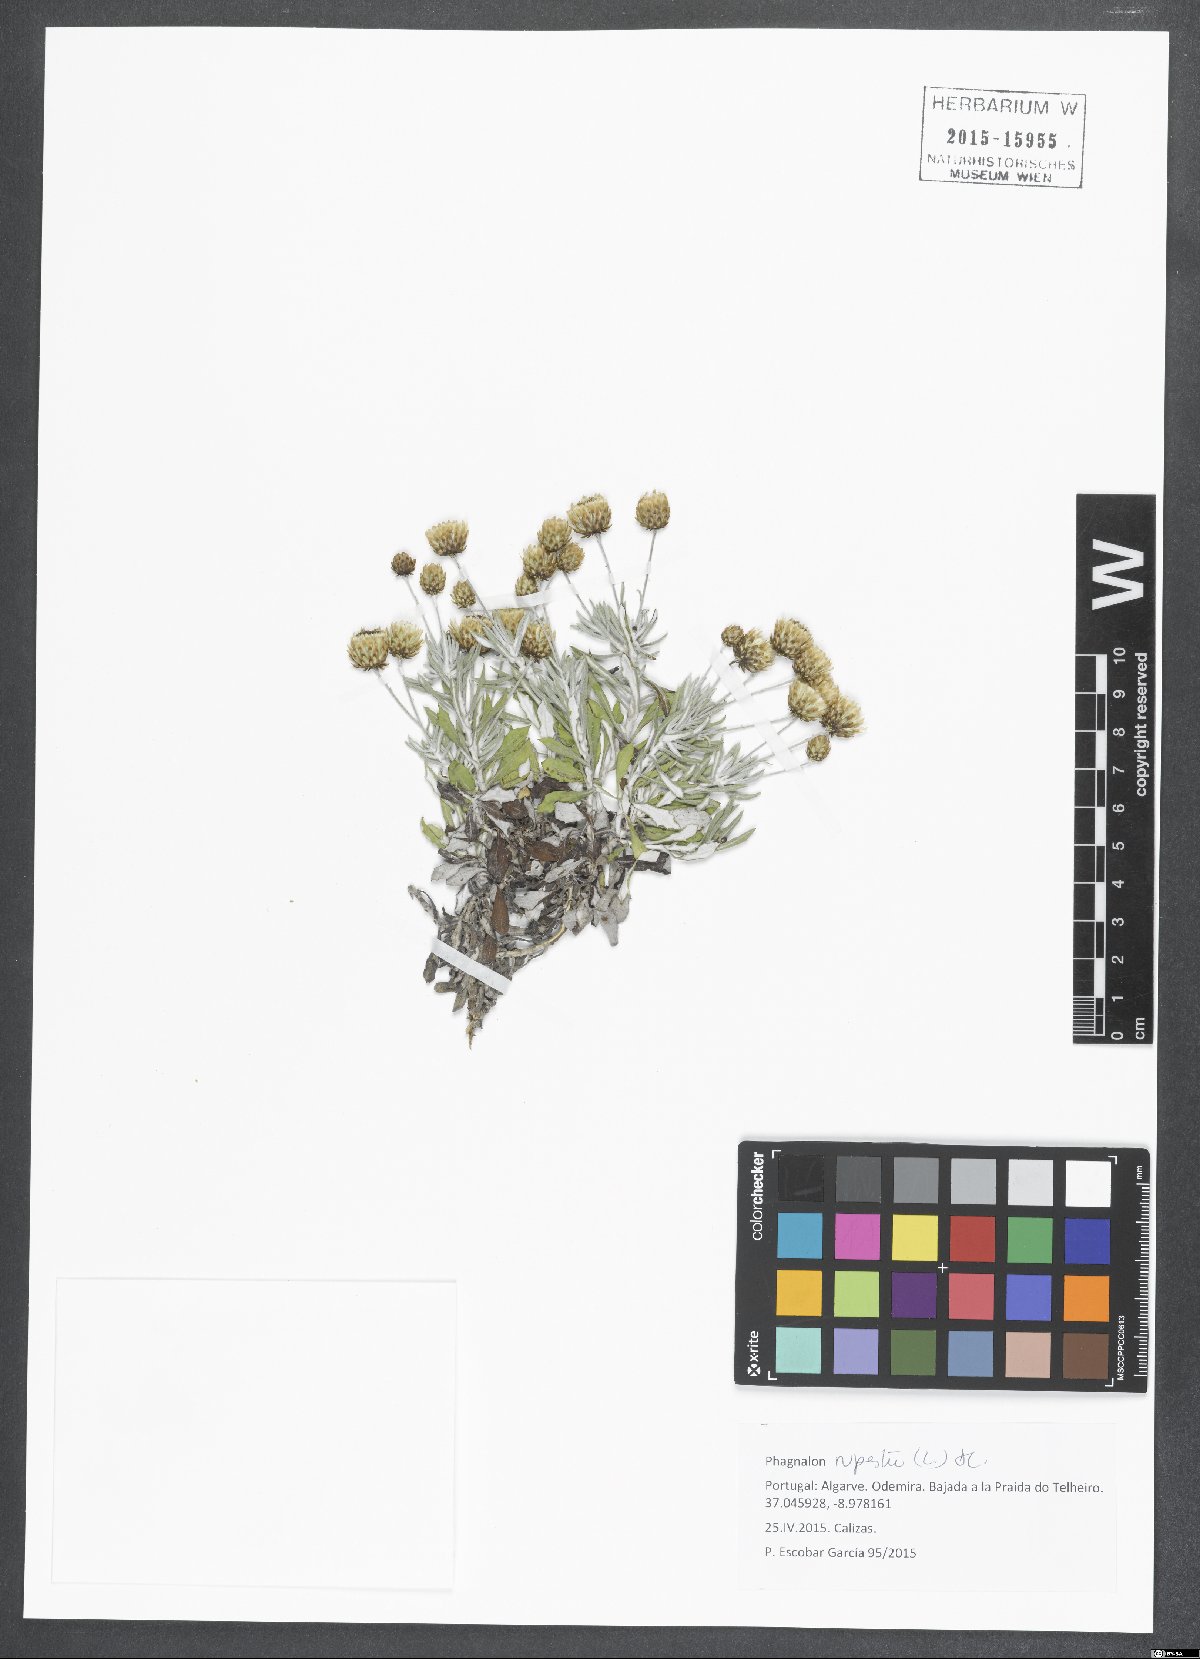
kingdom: Plantae
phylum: Tracheophyta
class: Magnoliopsida
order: Asterales
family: Asteraceae
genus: Phagnalon
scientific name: Phagnalon rupestre
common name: Rock phagnalon
